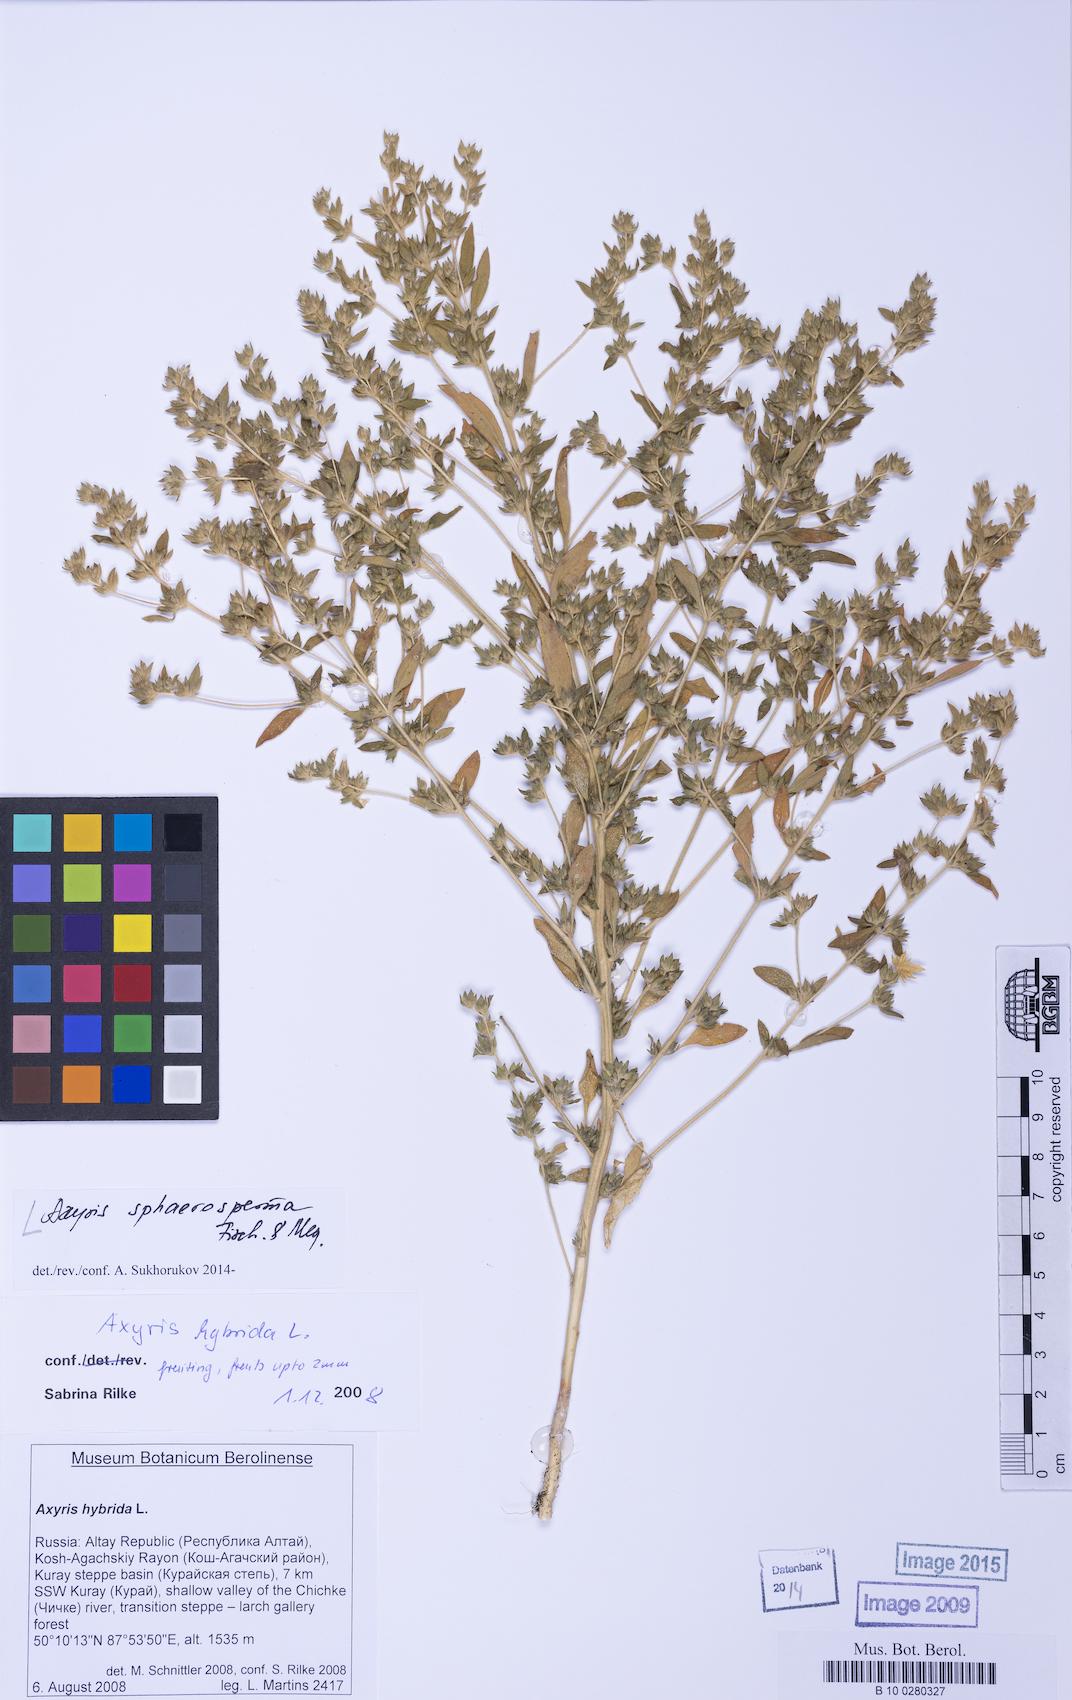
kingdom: Plantae
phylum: Tracheophyta
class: Magnoliopsida
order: Caryophyllales
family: Amaranthaceae
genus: Axyris
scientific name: Axyris
